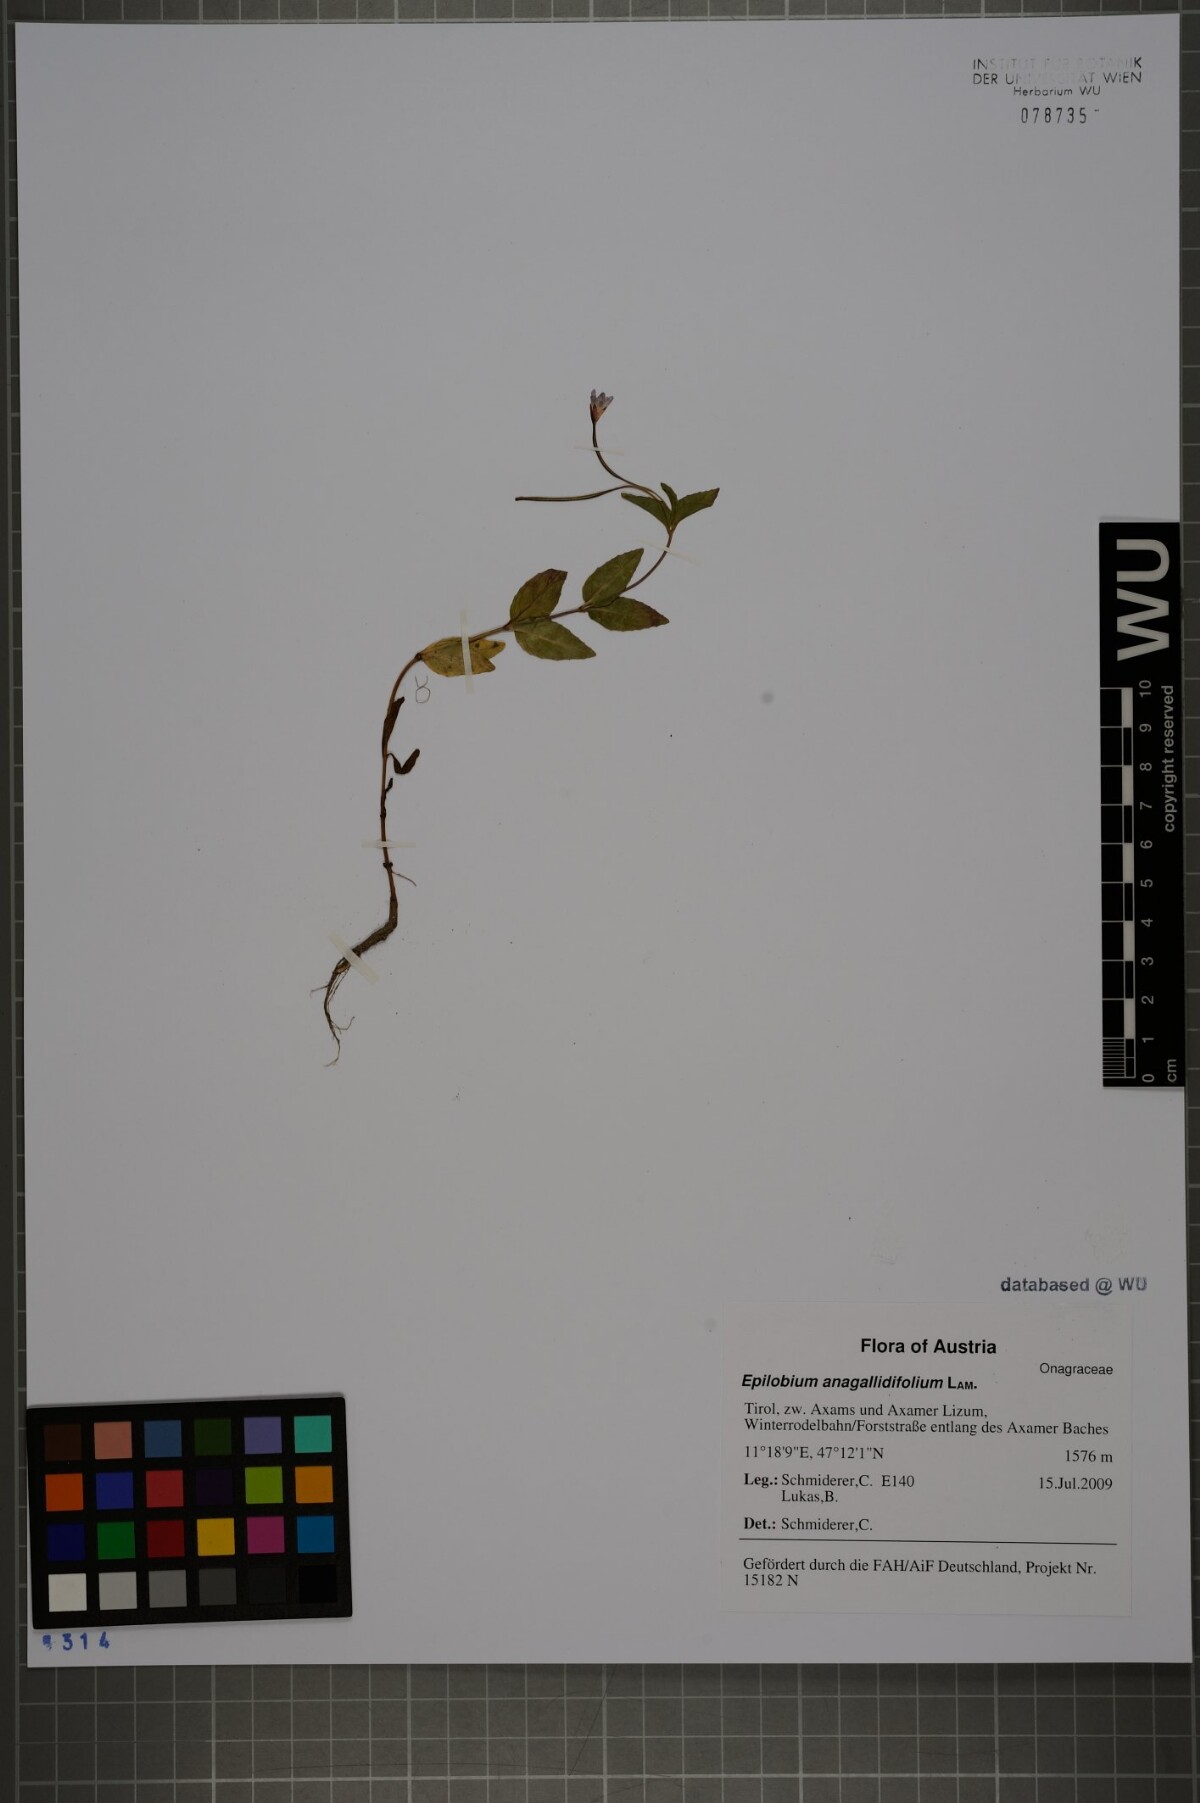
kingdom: Plantae
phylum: Tracheophyta
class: Magnoliopsida
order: Myrtales
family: Onagraceae
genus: Epilobium
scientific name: Epilobium anagallidifolium
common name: Alpine willowherb
